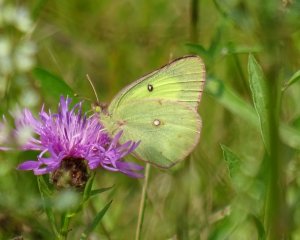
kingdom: Animalia
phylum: Arthropoda
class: Insecta
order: Lepidoptera
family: Pieridae
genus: Colias
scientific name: Colias philodice
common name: Clouded Sulphur
